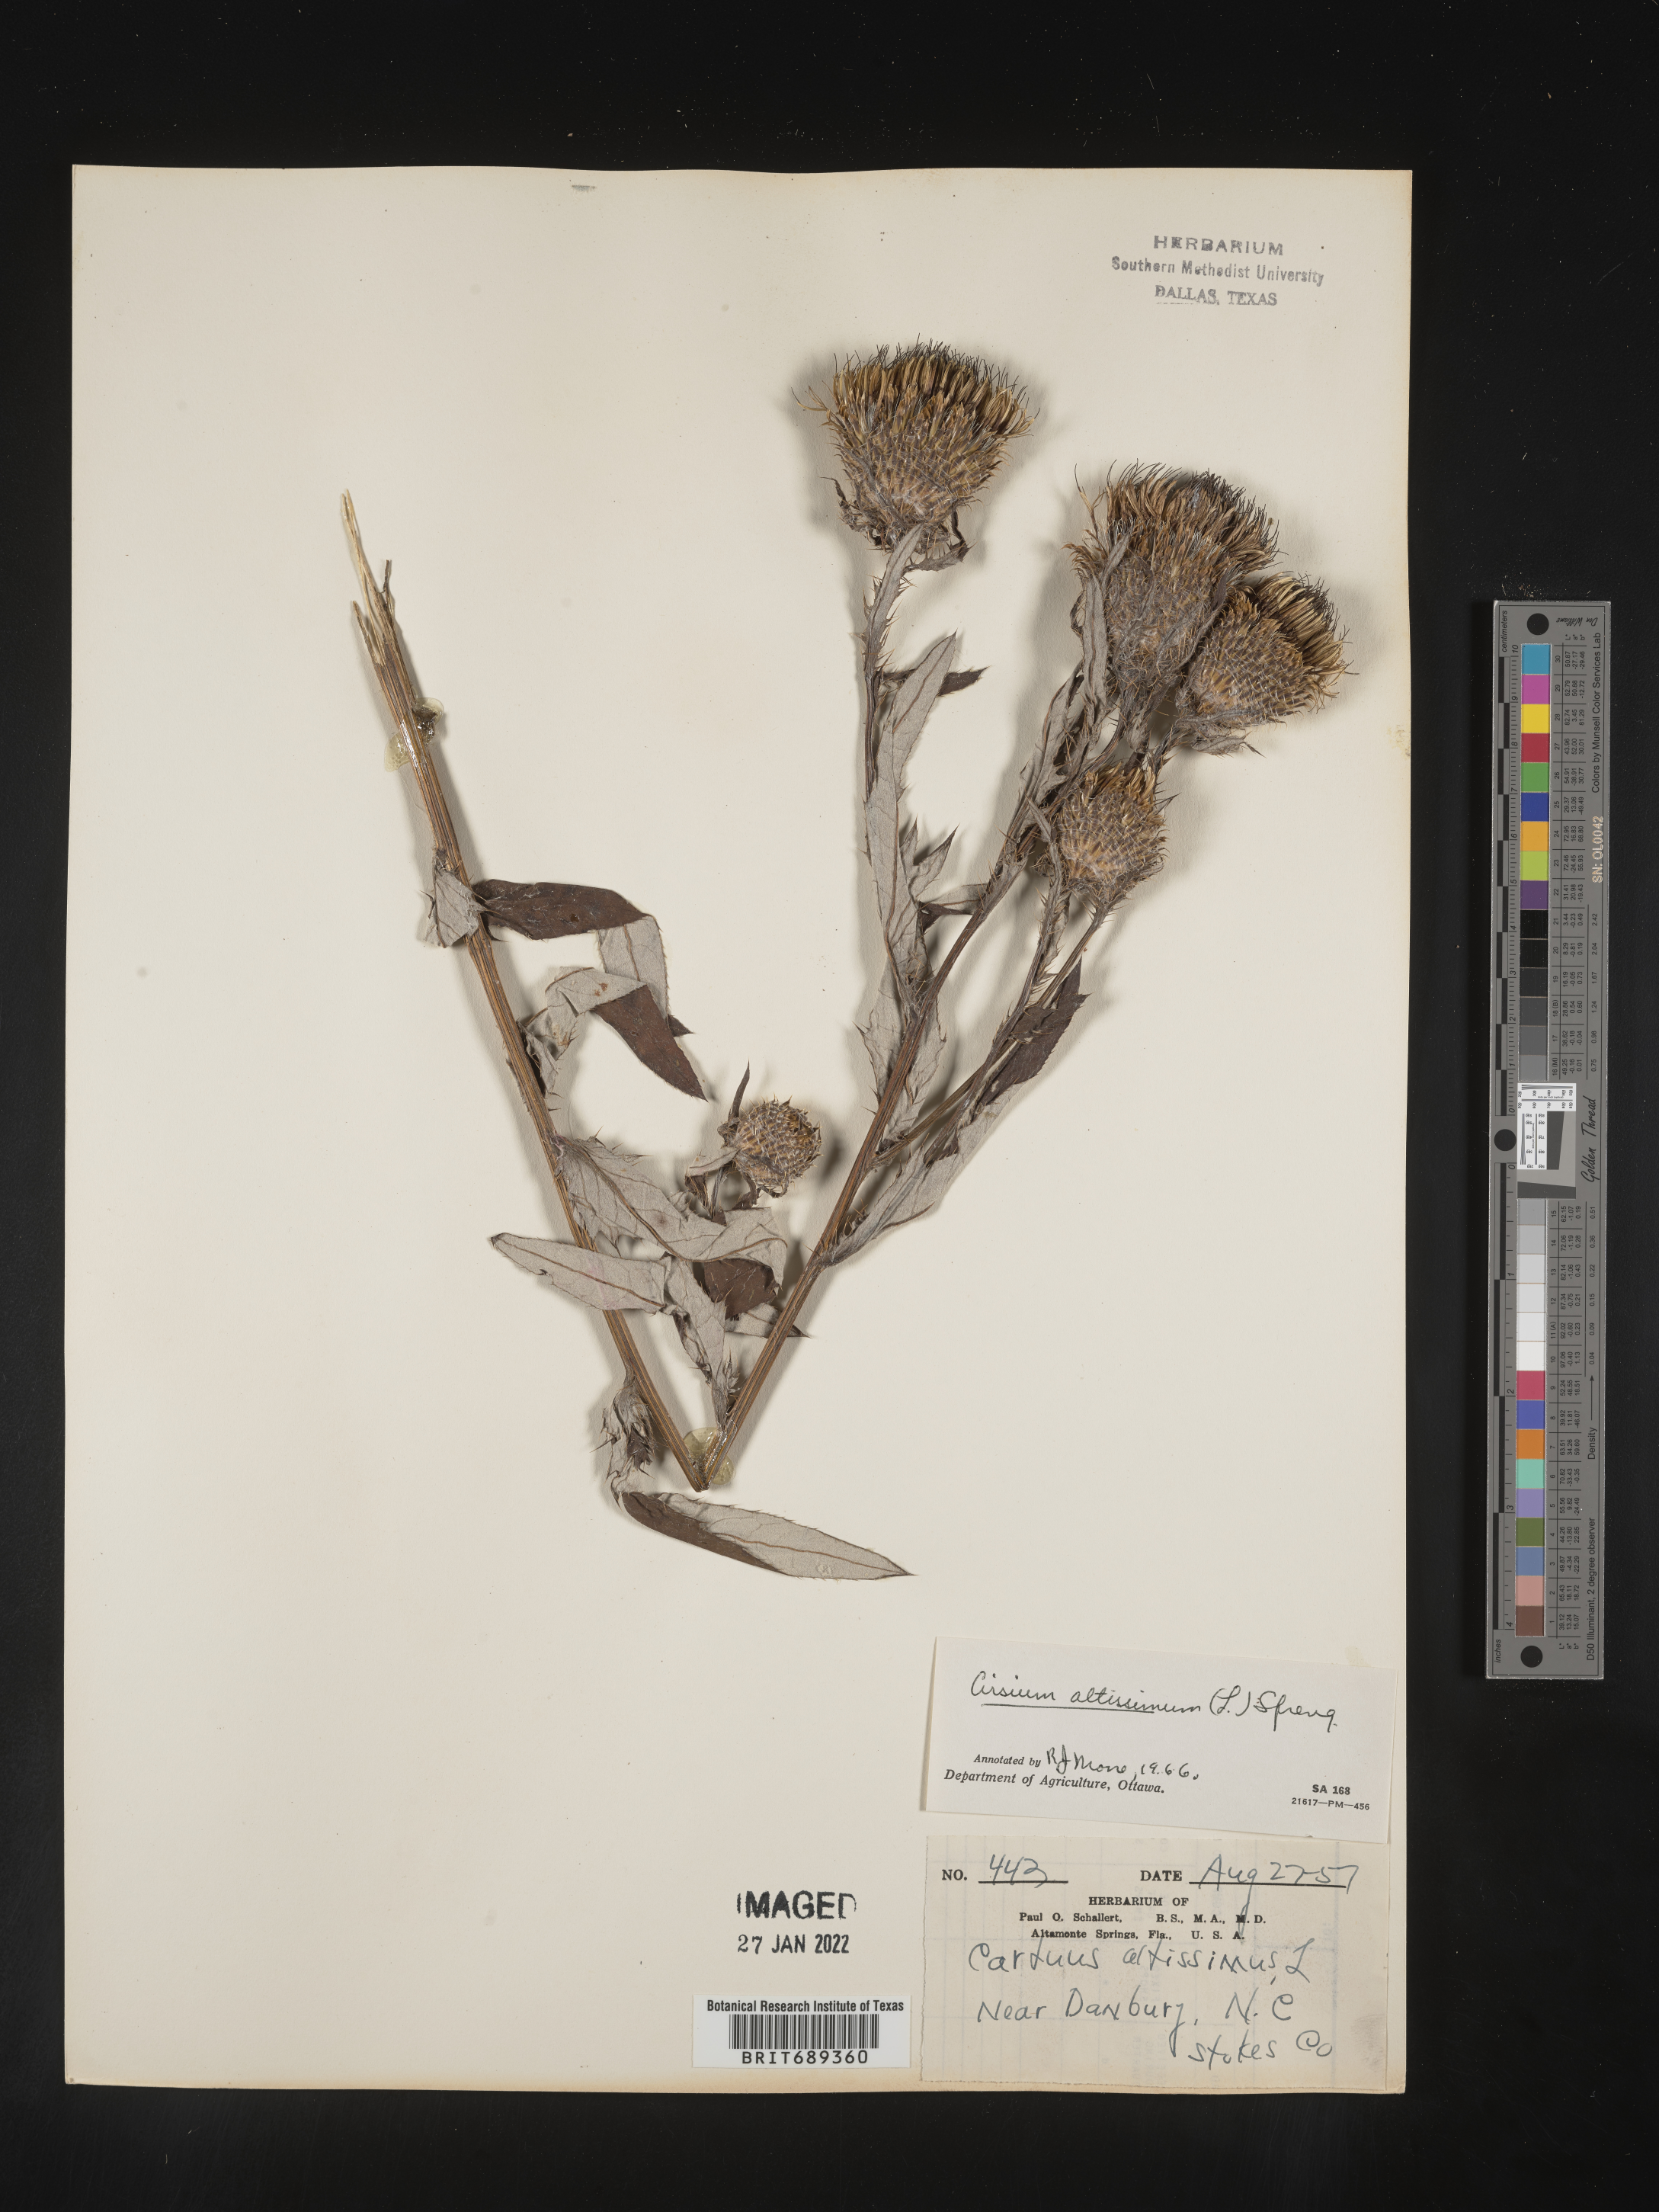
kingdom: Plantae
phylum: Tracheophyta
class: Magnoliopsida
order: Asterales
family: Asteraceae
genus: Cirsium
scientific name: Cirsium altissimum
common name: Roadside thistle
